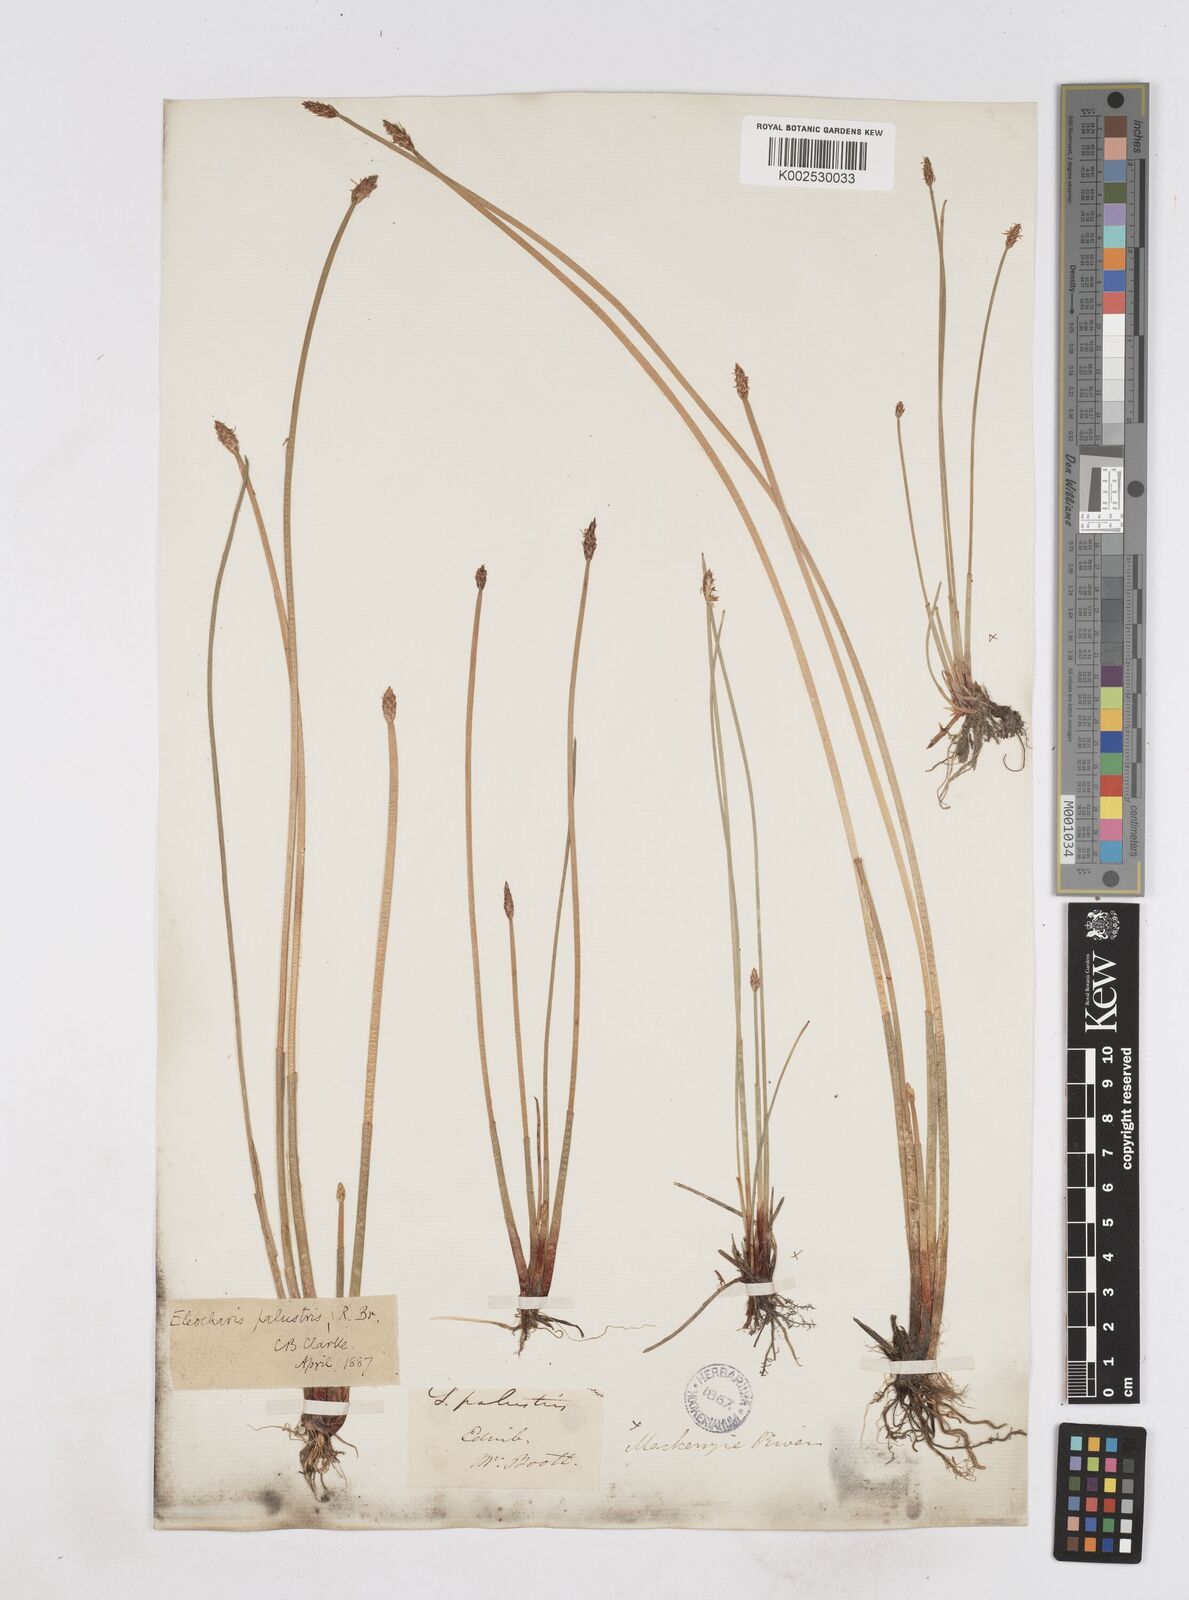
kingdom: Plantae
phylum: Tracheophyta
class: Liliopsida
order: Poales
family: Cyperaceae
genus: Eleocharis
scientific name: Eleocharis palustris
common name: Common spike-rush
